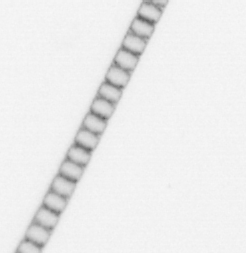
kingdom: Chromista
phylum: Ochrophyta
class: Bacillariophyceae
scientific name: Bacillariophyceae
